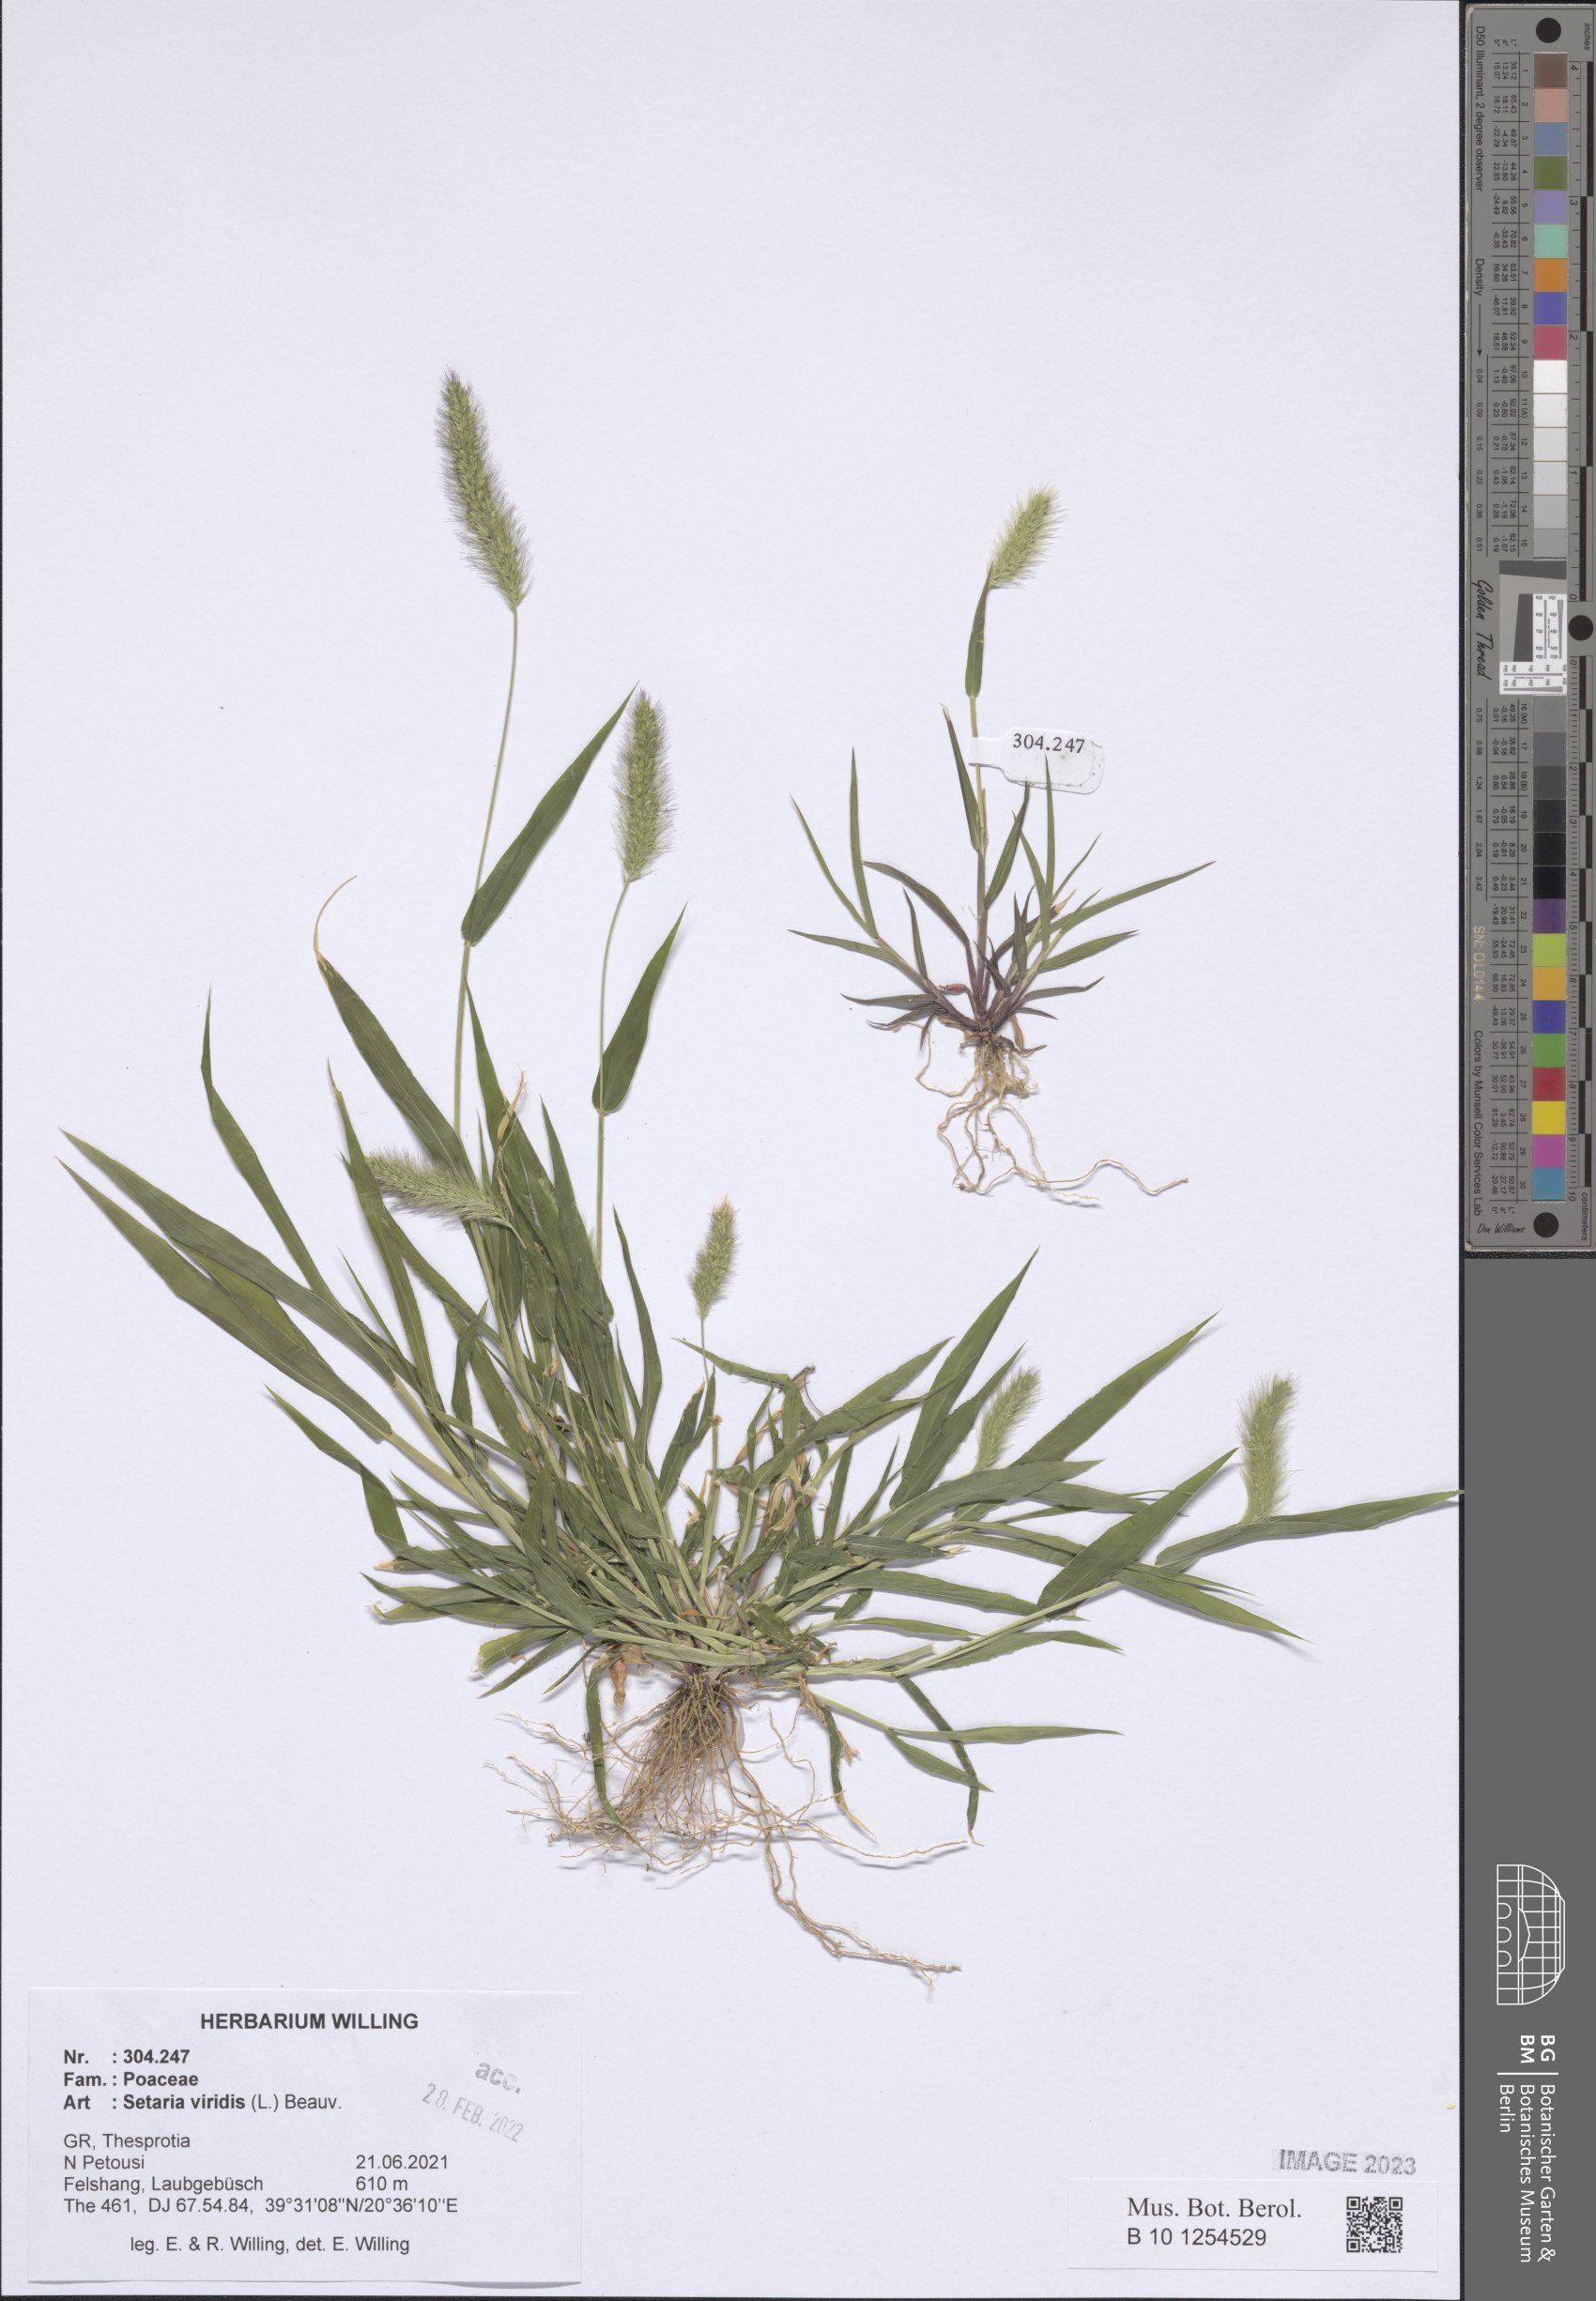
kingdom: Plantae
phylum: Tracheophyta
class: Liliopsida
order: Poales
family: Poaceae
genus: Setaria
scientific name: Setaria viridis
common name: Green bristlegrass
